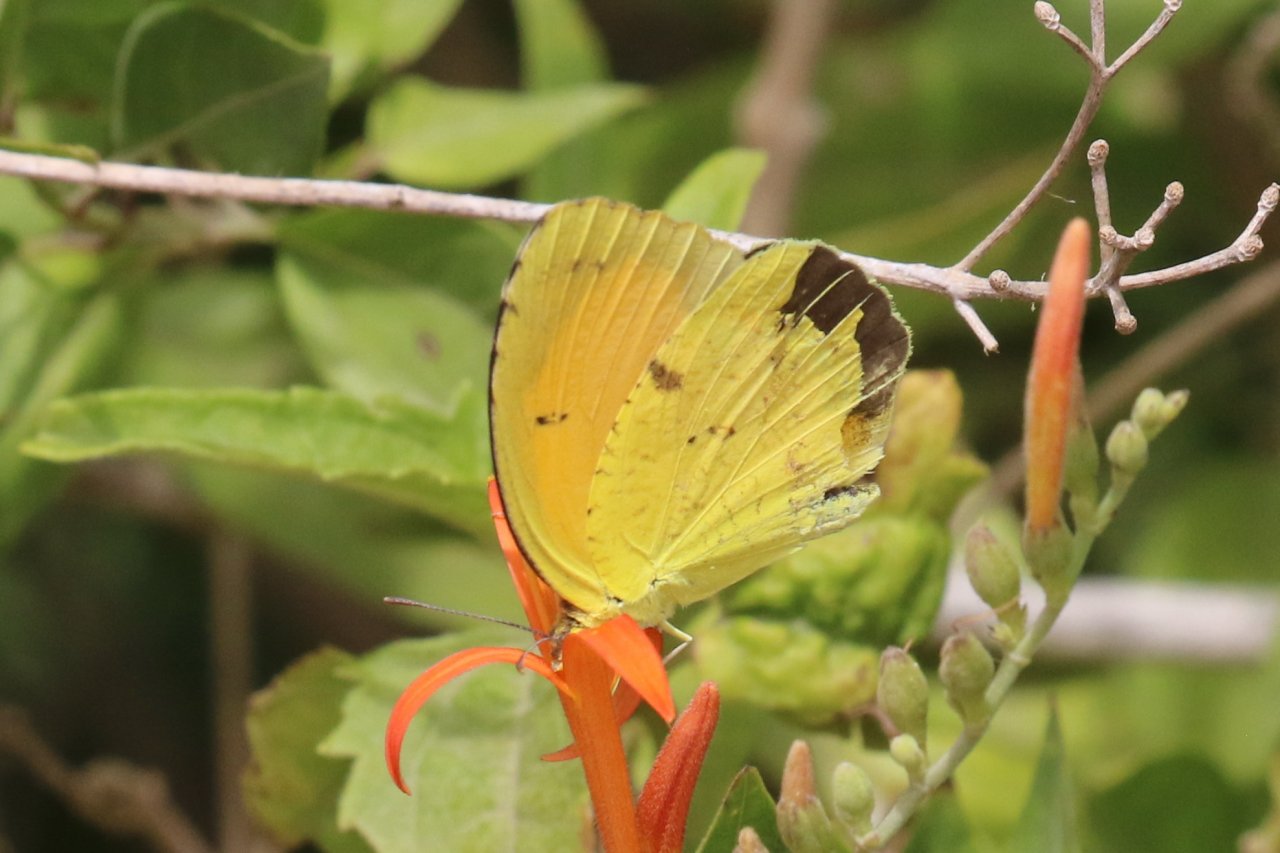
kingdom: Animalia
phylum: Arthropoda
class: Insecta
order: Lepidoptera
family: Pieridae
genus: Abaeis
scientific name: Abaeis nicippe
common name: Sleepy Orange
